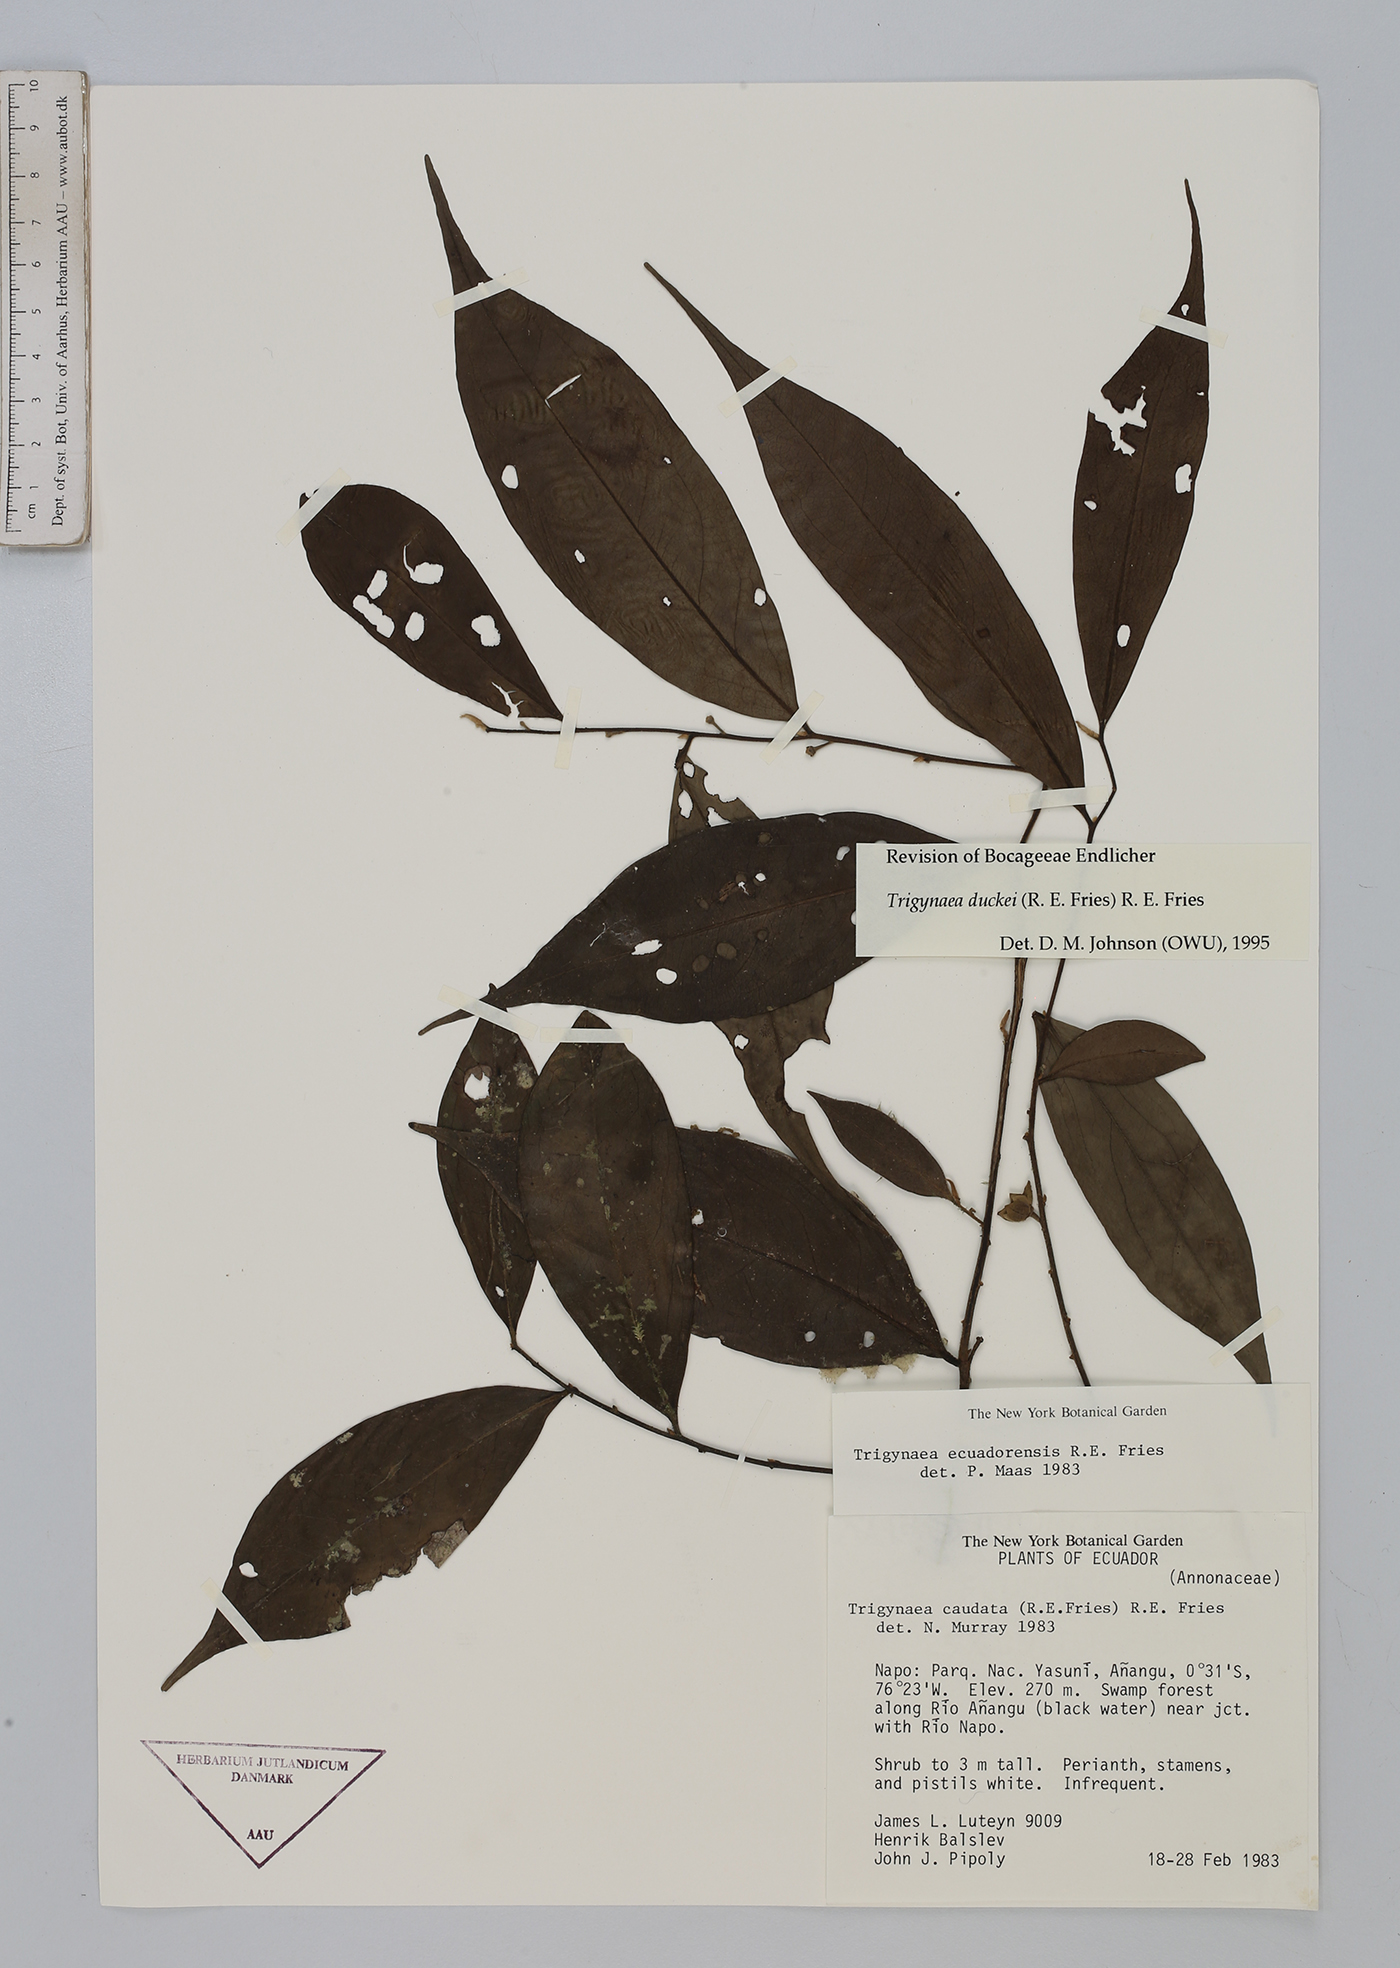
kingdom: Plantae
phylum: Tracheophyta
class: Magnoliopsida
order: Magnoliales
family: Annonaceae
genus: Trigynaea
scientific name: Trigynaea duckei
